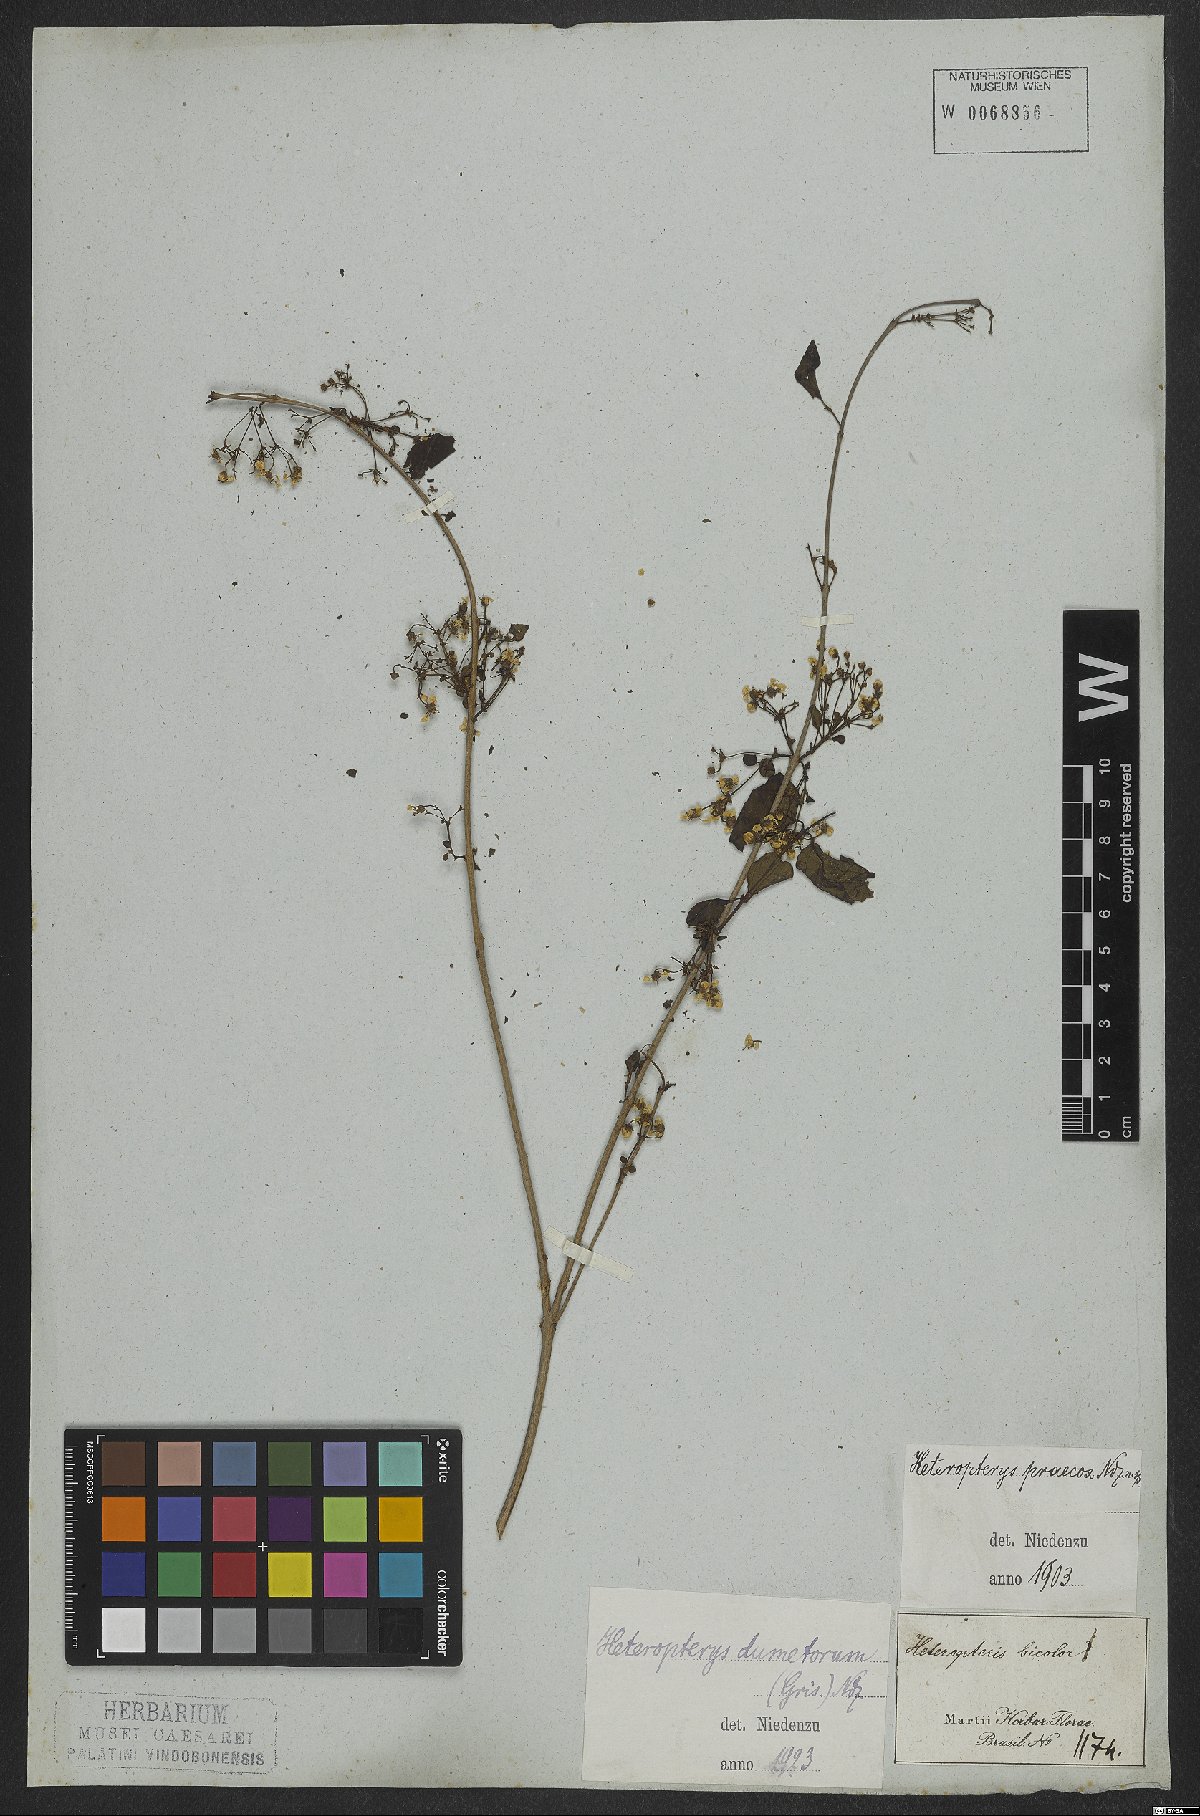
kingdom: Plantae
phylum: Tracheophyta
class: Magnoliopsida
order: Malpighiales
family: Malpighiaceae
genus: Heteropterys
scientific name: Heteropterys dumetorum
